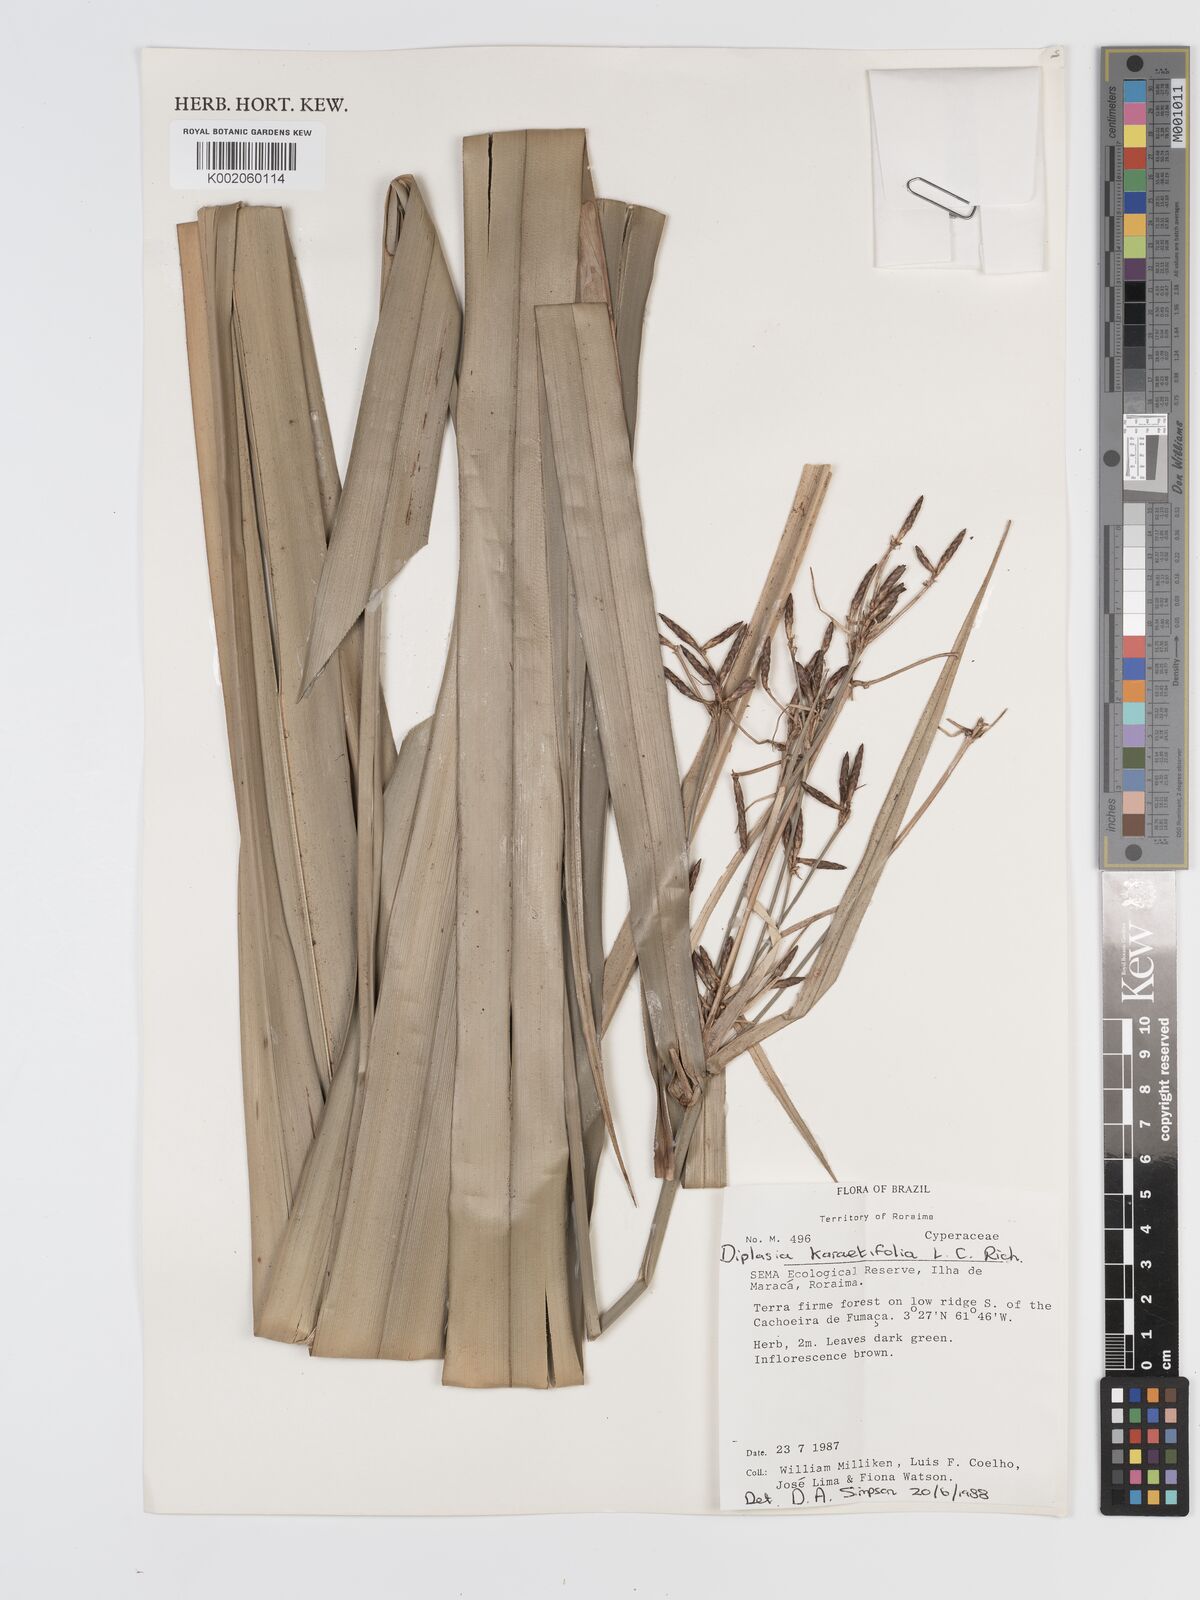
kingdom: Plantae
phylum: Tracheophyta
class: Liliopsida
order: Poales
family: Cyperaceae
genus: Diplasia
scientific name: Diplasia karatifolia
